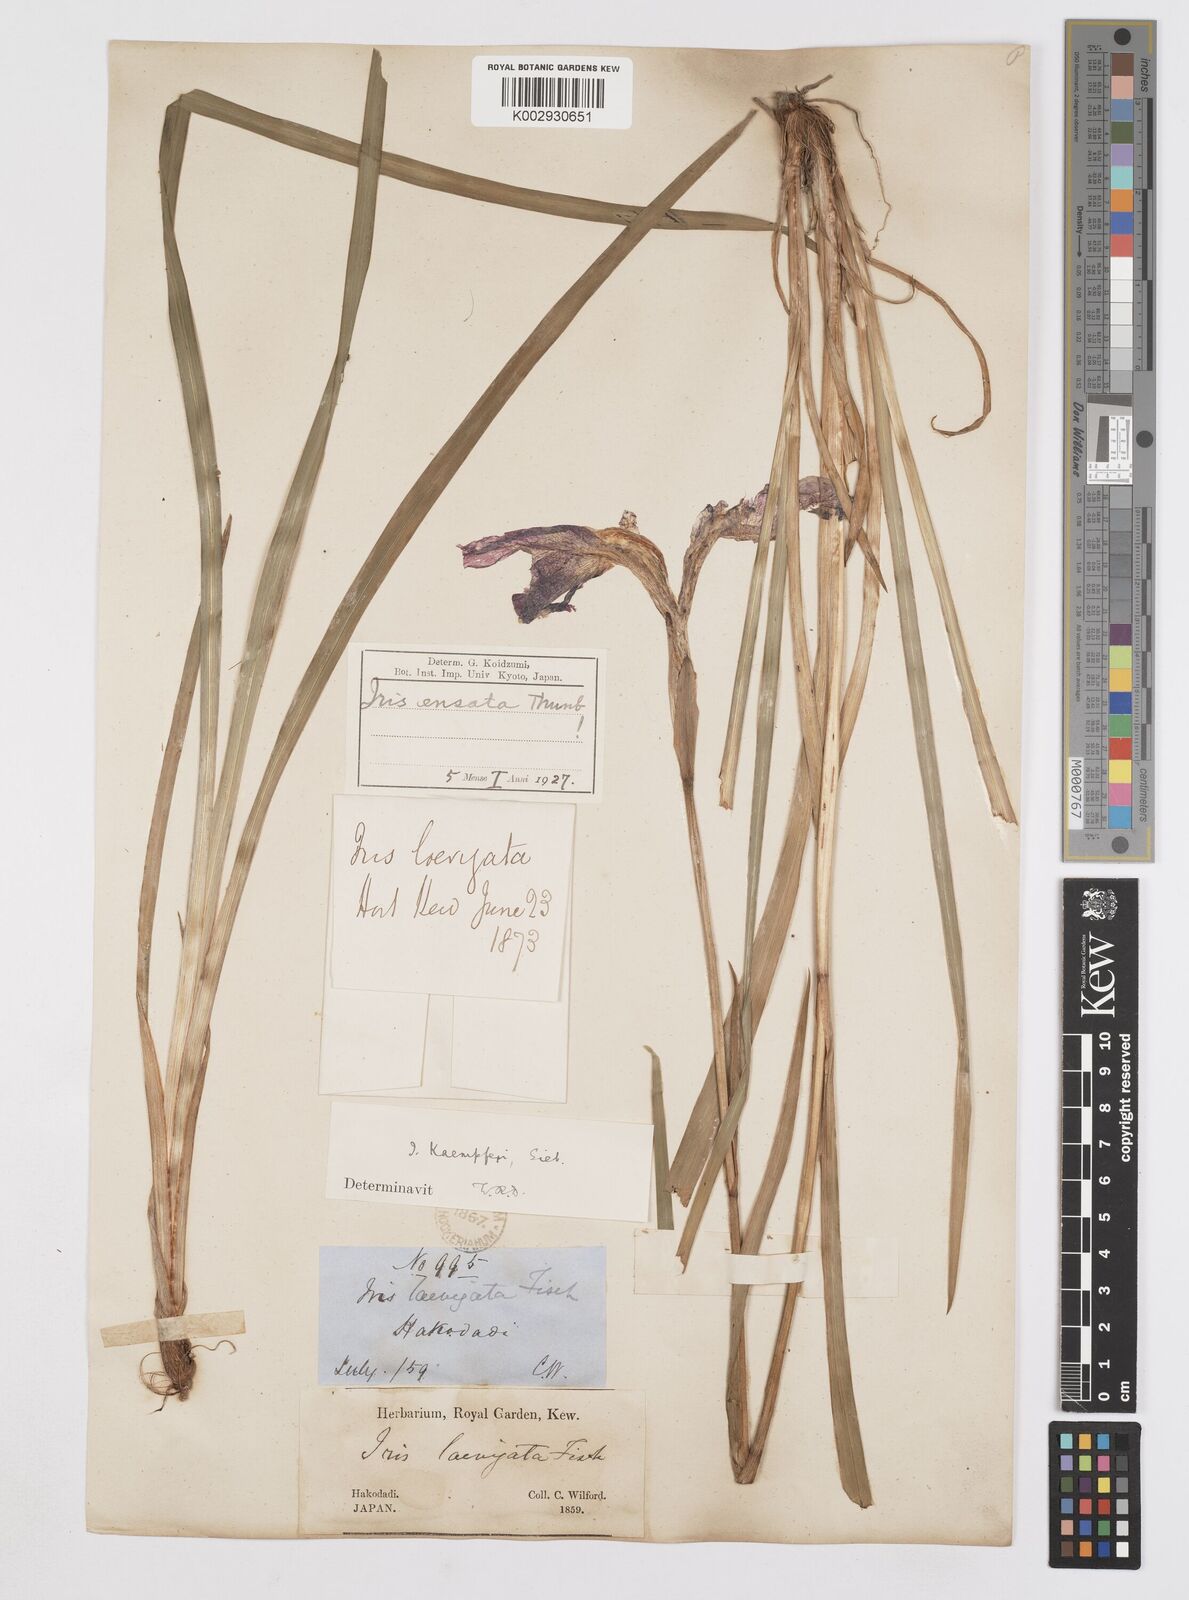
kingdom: Plantae
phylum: Tracheophyta
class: Liliopsida
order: Asparagales
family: Iridaceae
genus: Iris
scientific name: Iris ensata
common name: Beaked iris
